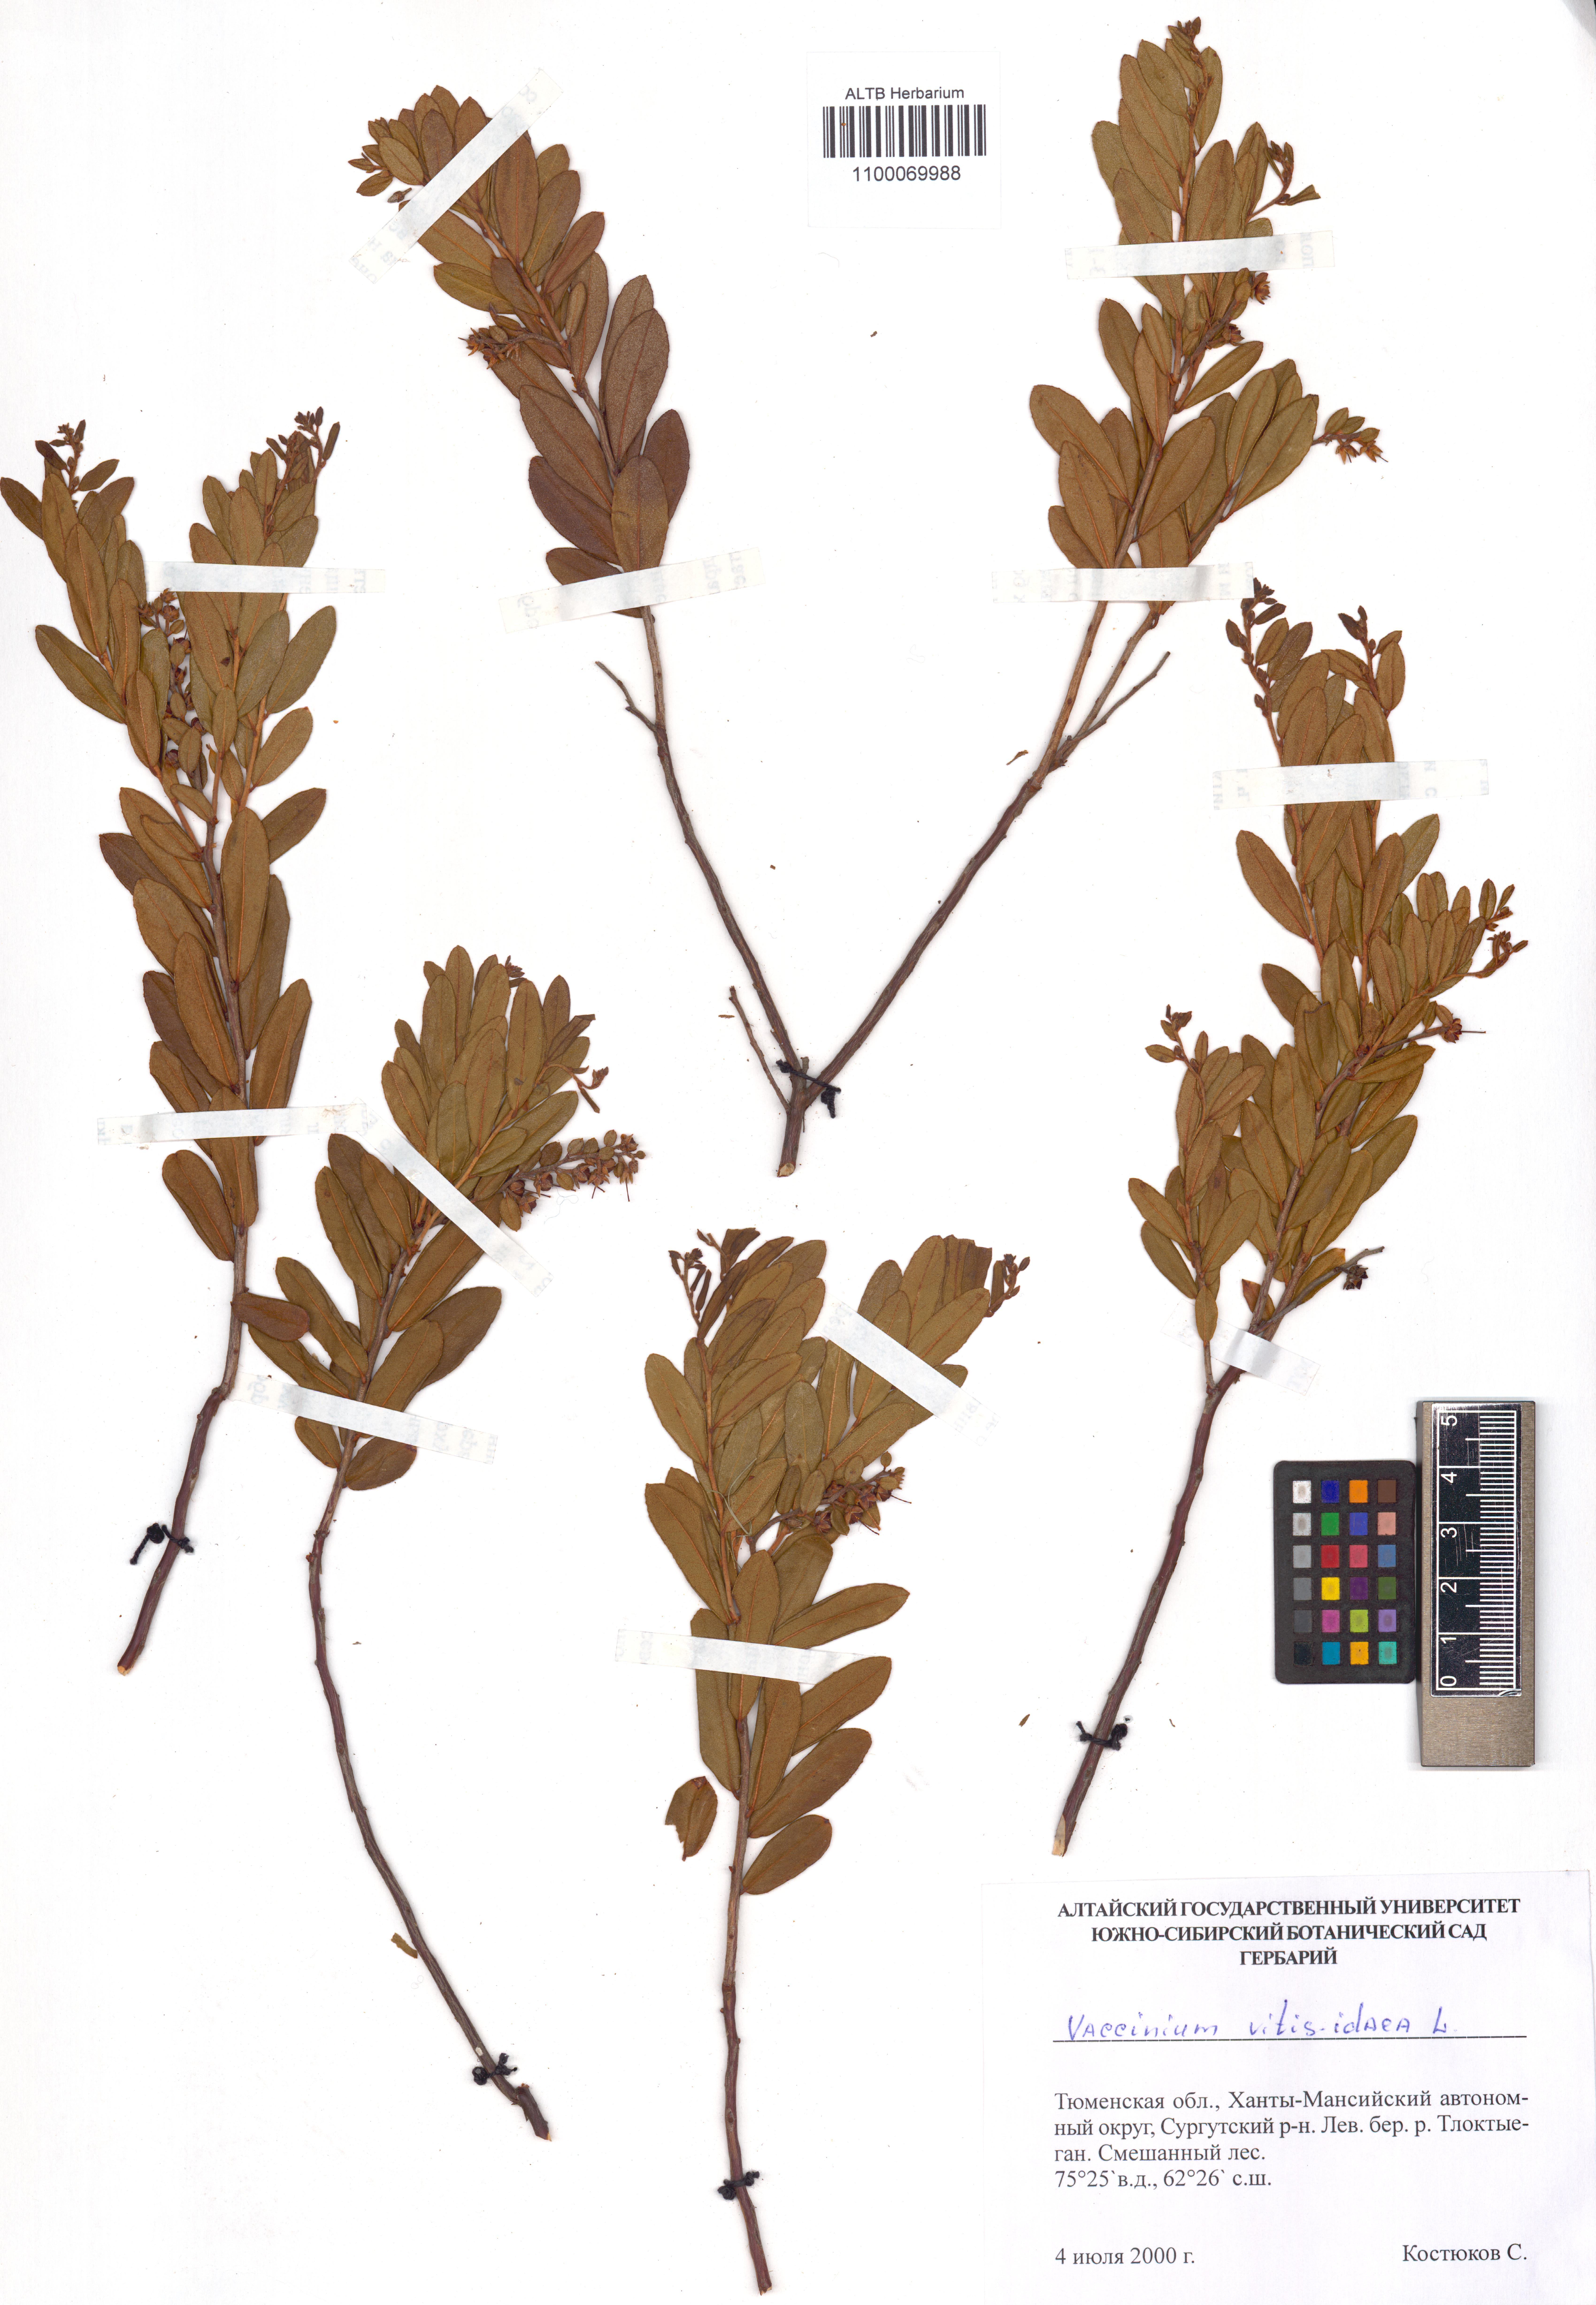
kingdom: Plantae
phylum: Tracheophyta
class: Magnoliopsida
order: Ericales
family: Ericaceae
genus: Vaccinium
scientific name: Vaccinium vitis-idaea
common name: Cowberry
